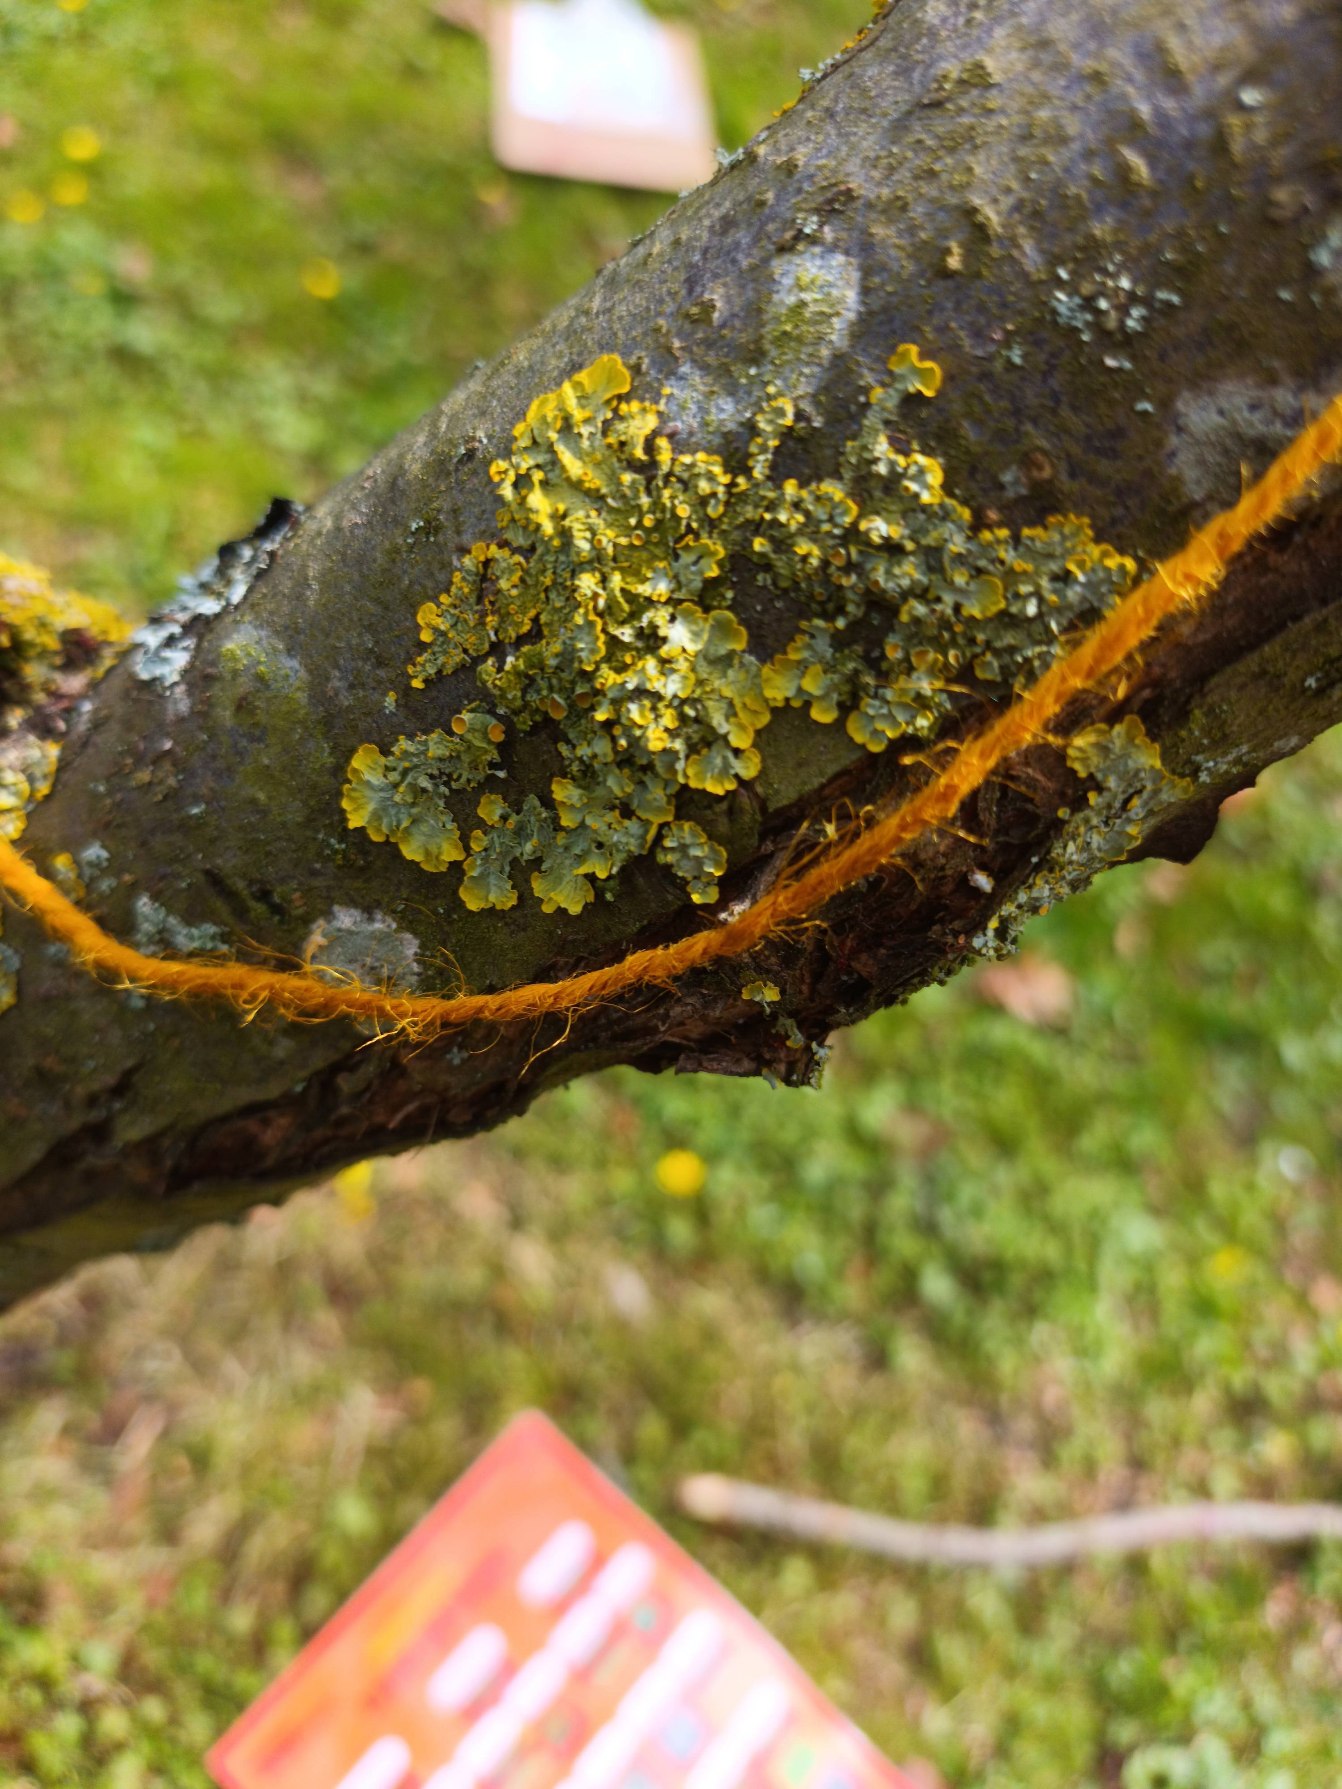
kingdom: Fungi
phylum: Ascomycota
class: Lecanoromycetes
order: Teloschistales
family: Teloschistaceae
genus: Xanthoria
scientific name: Xanthoria parietina
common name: Almindelig væggelav
